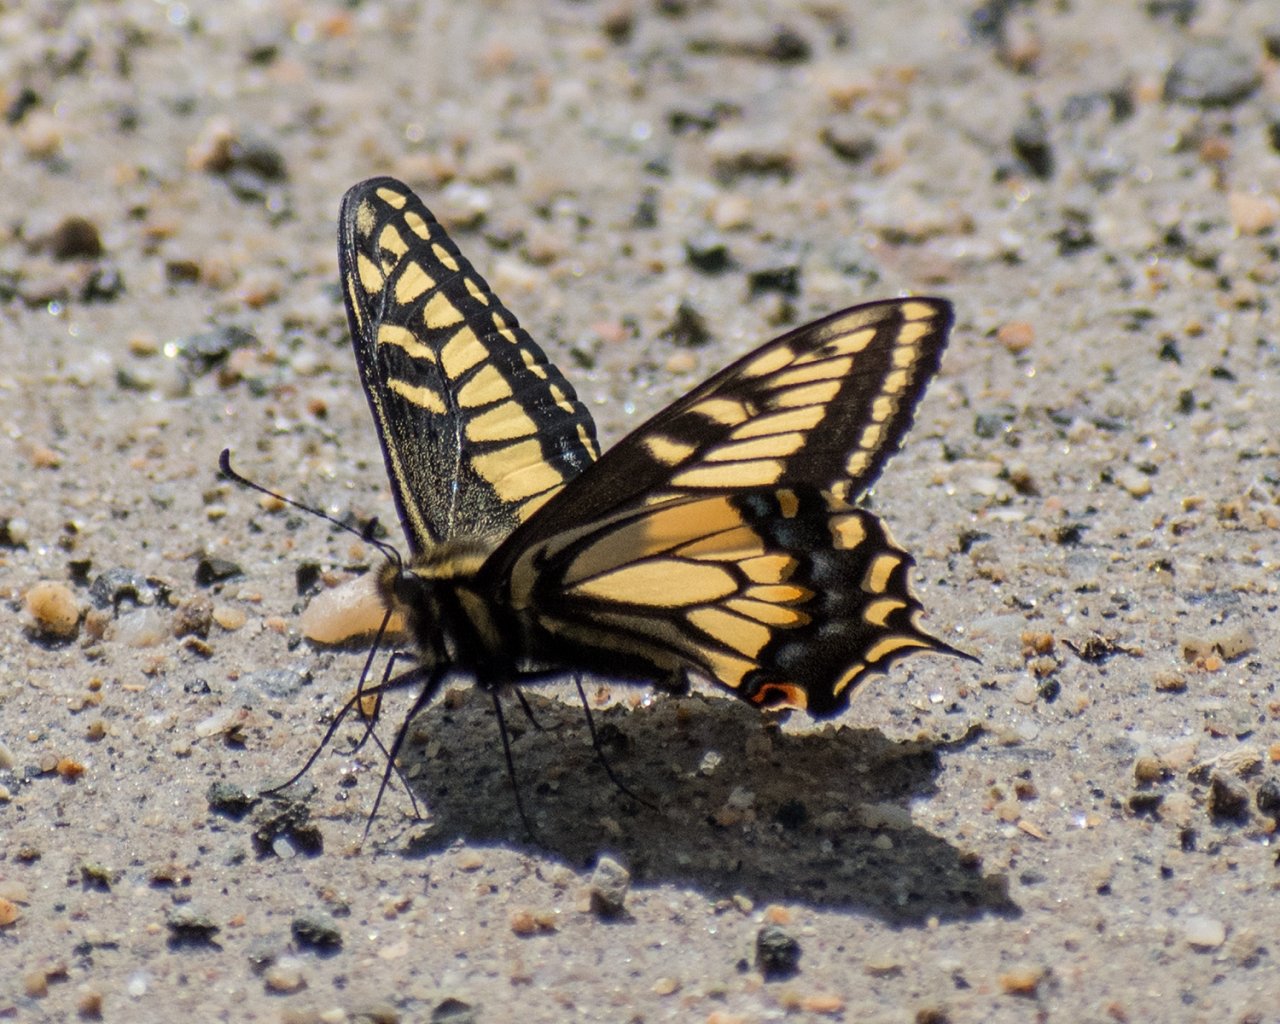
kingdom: Animalia
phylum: Arthropoda
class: Insecta
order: Lepidoptera
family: Papilionidae
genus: Papilio
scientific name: Papilio zelicaon
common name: Anise Swallowtail
